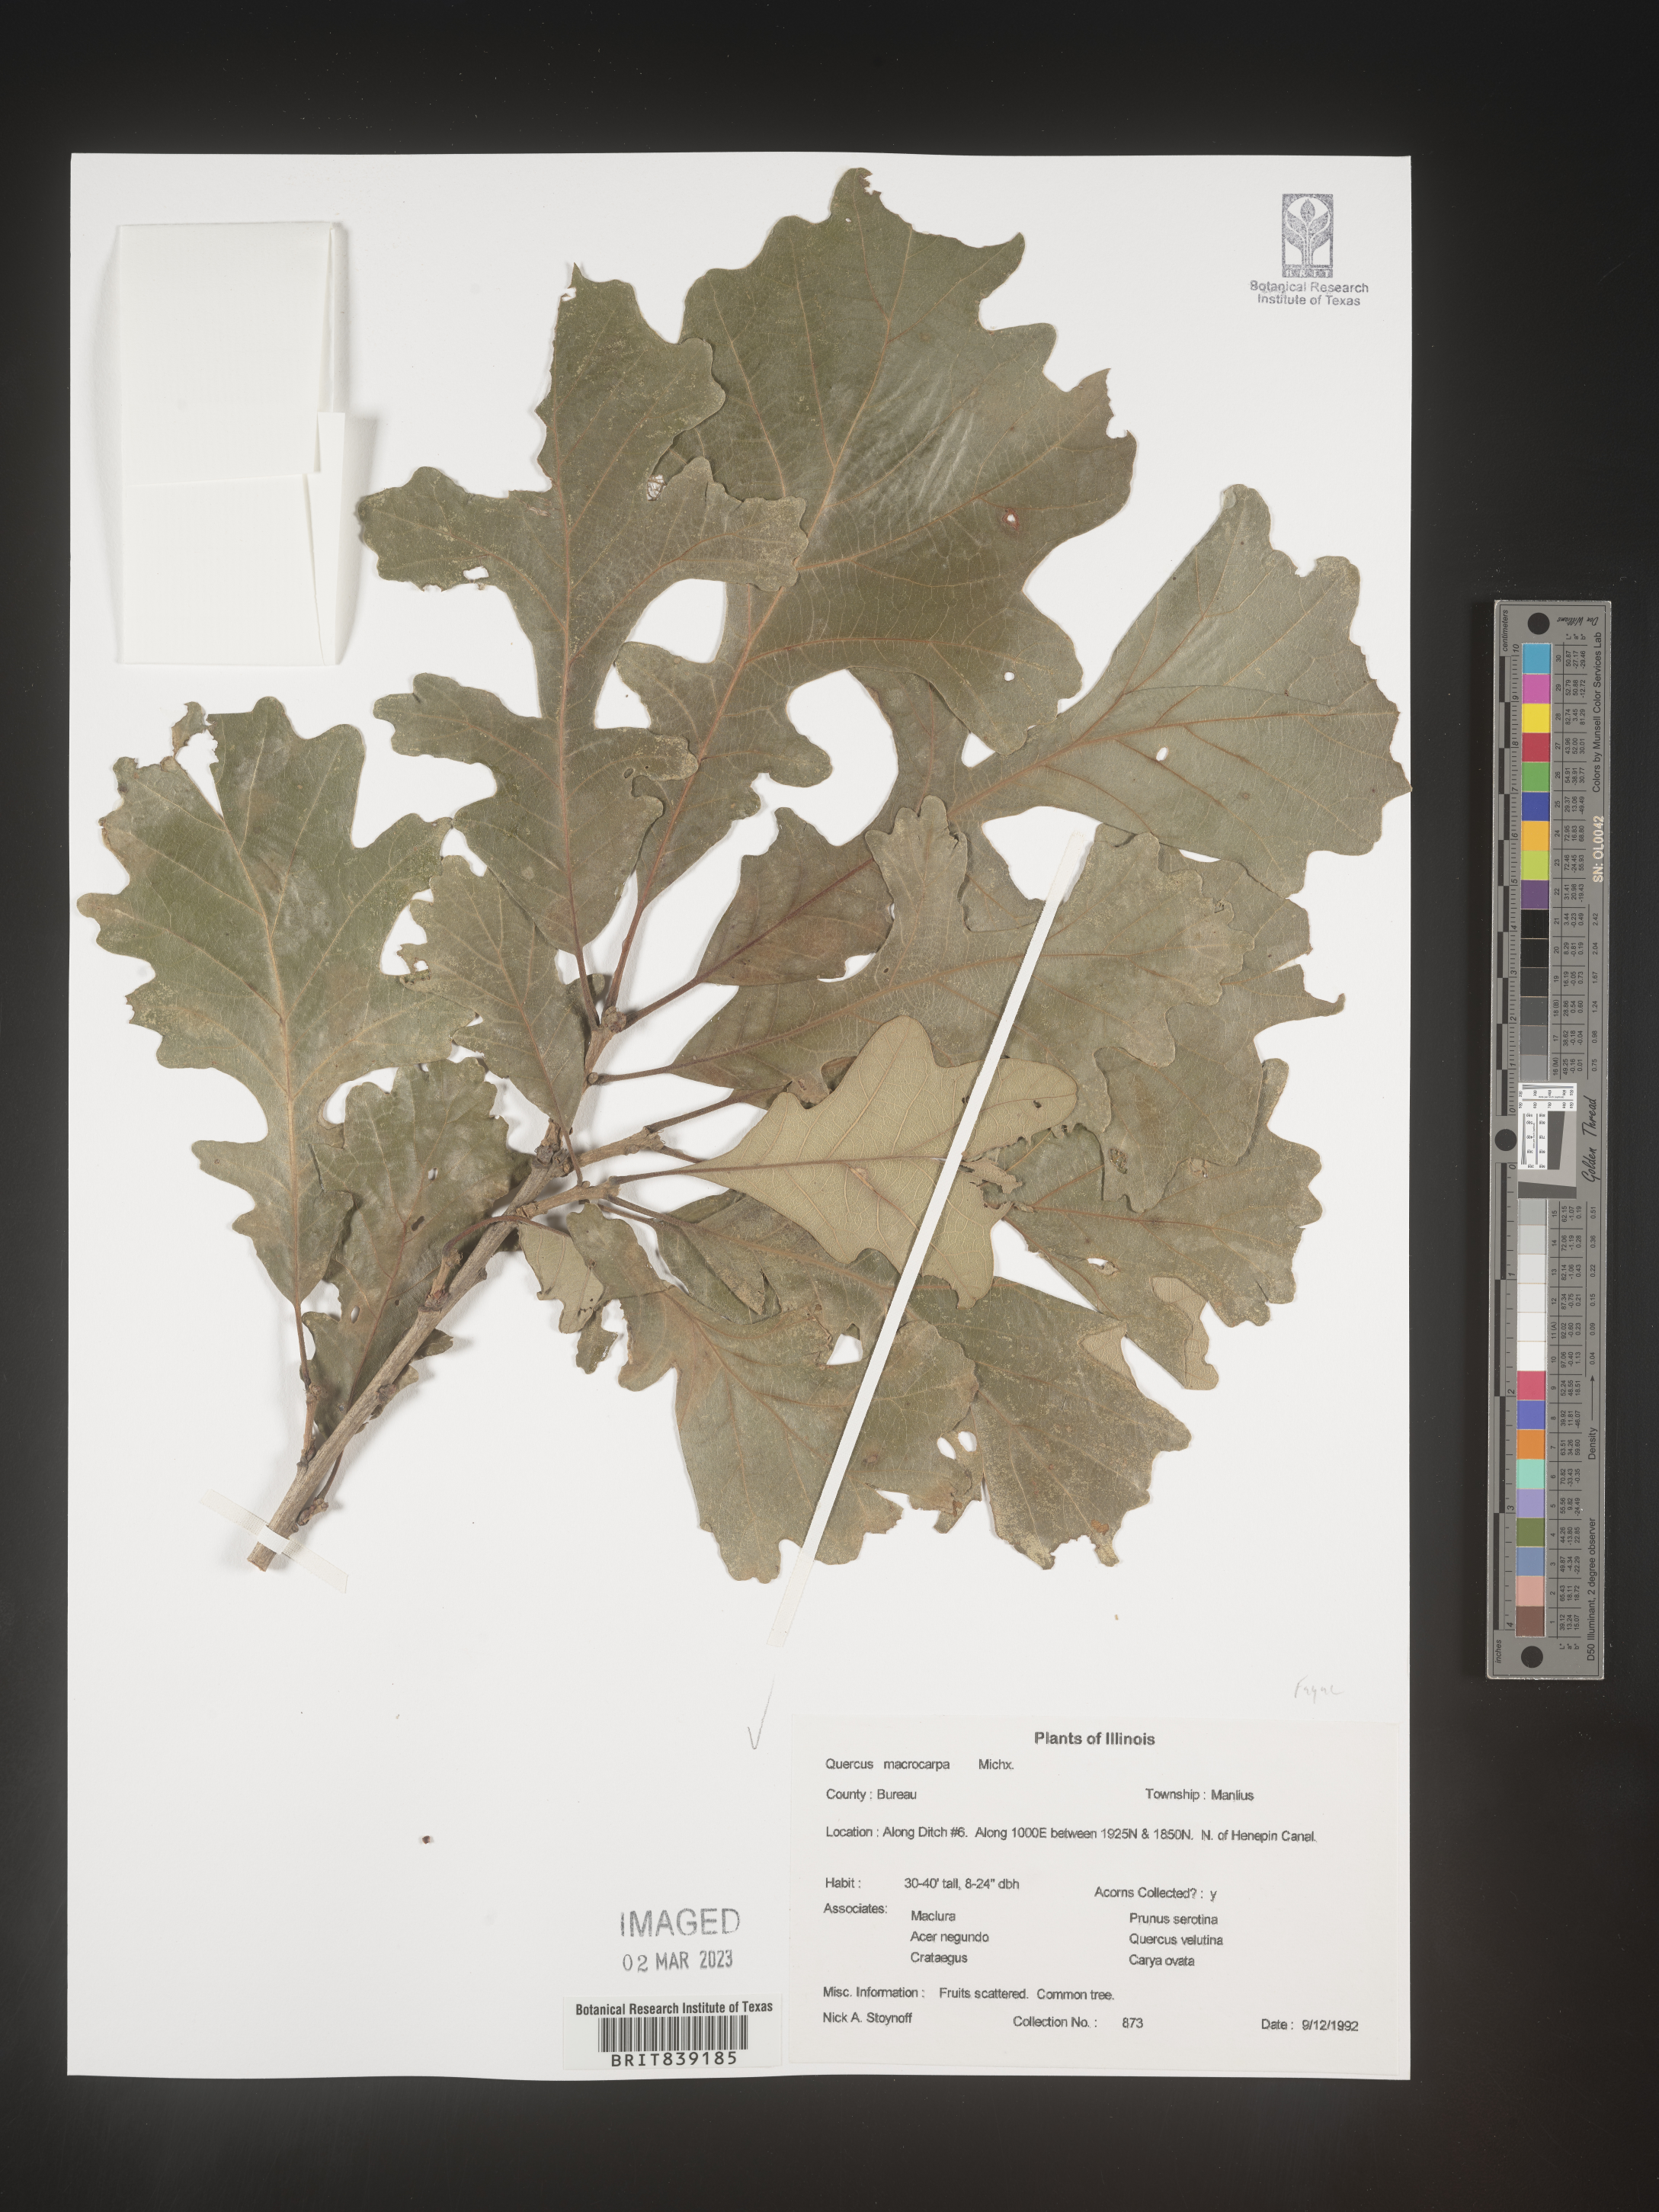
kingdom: Plantae
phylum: Tracheophyta
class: Magnoliopsida
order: Fagales
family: Fagaceae
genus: Quercus
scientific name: Quercus macrocarpa
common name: Bur oak
